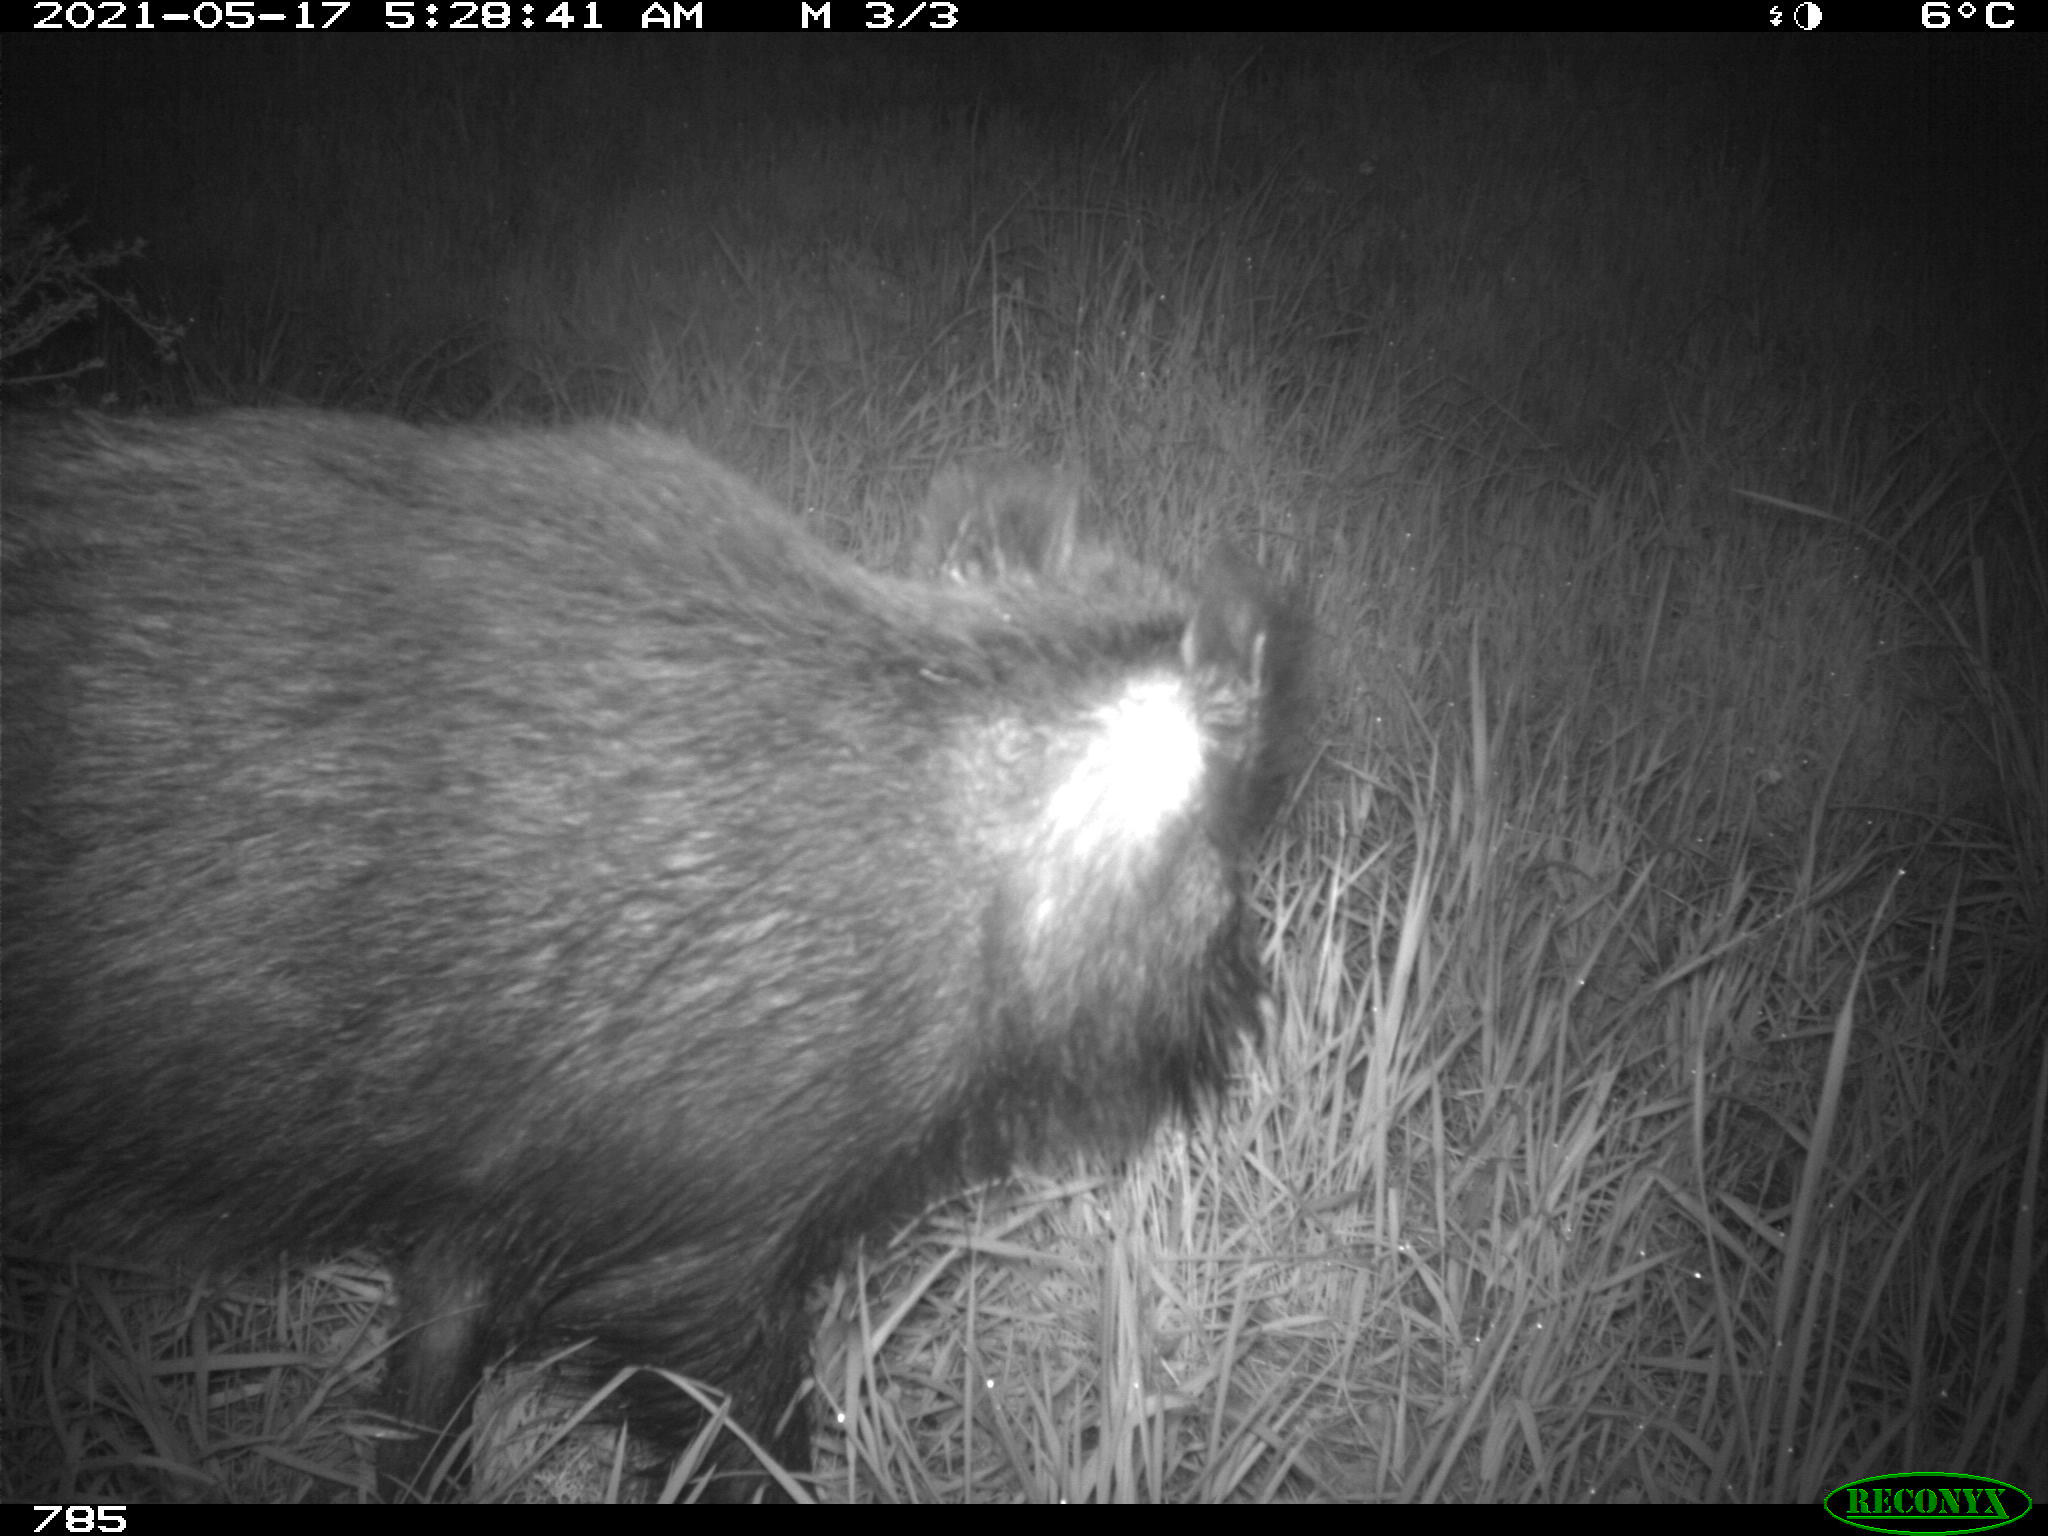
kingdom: Animalia
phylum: Chordata
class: Mammalia
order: Artiodactyla
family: Suidae
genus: Sus
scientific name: Sus scrofa
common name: Wild boar
